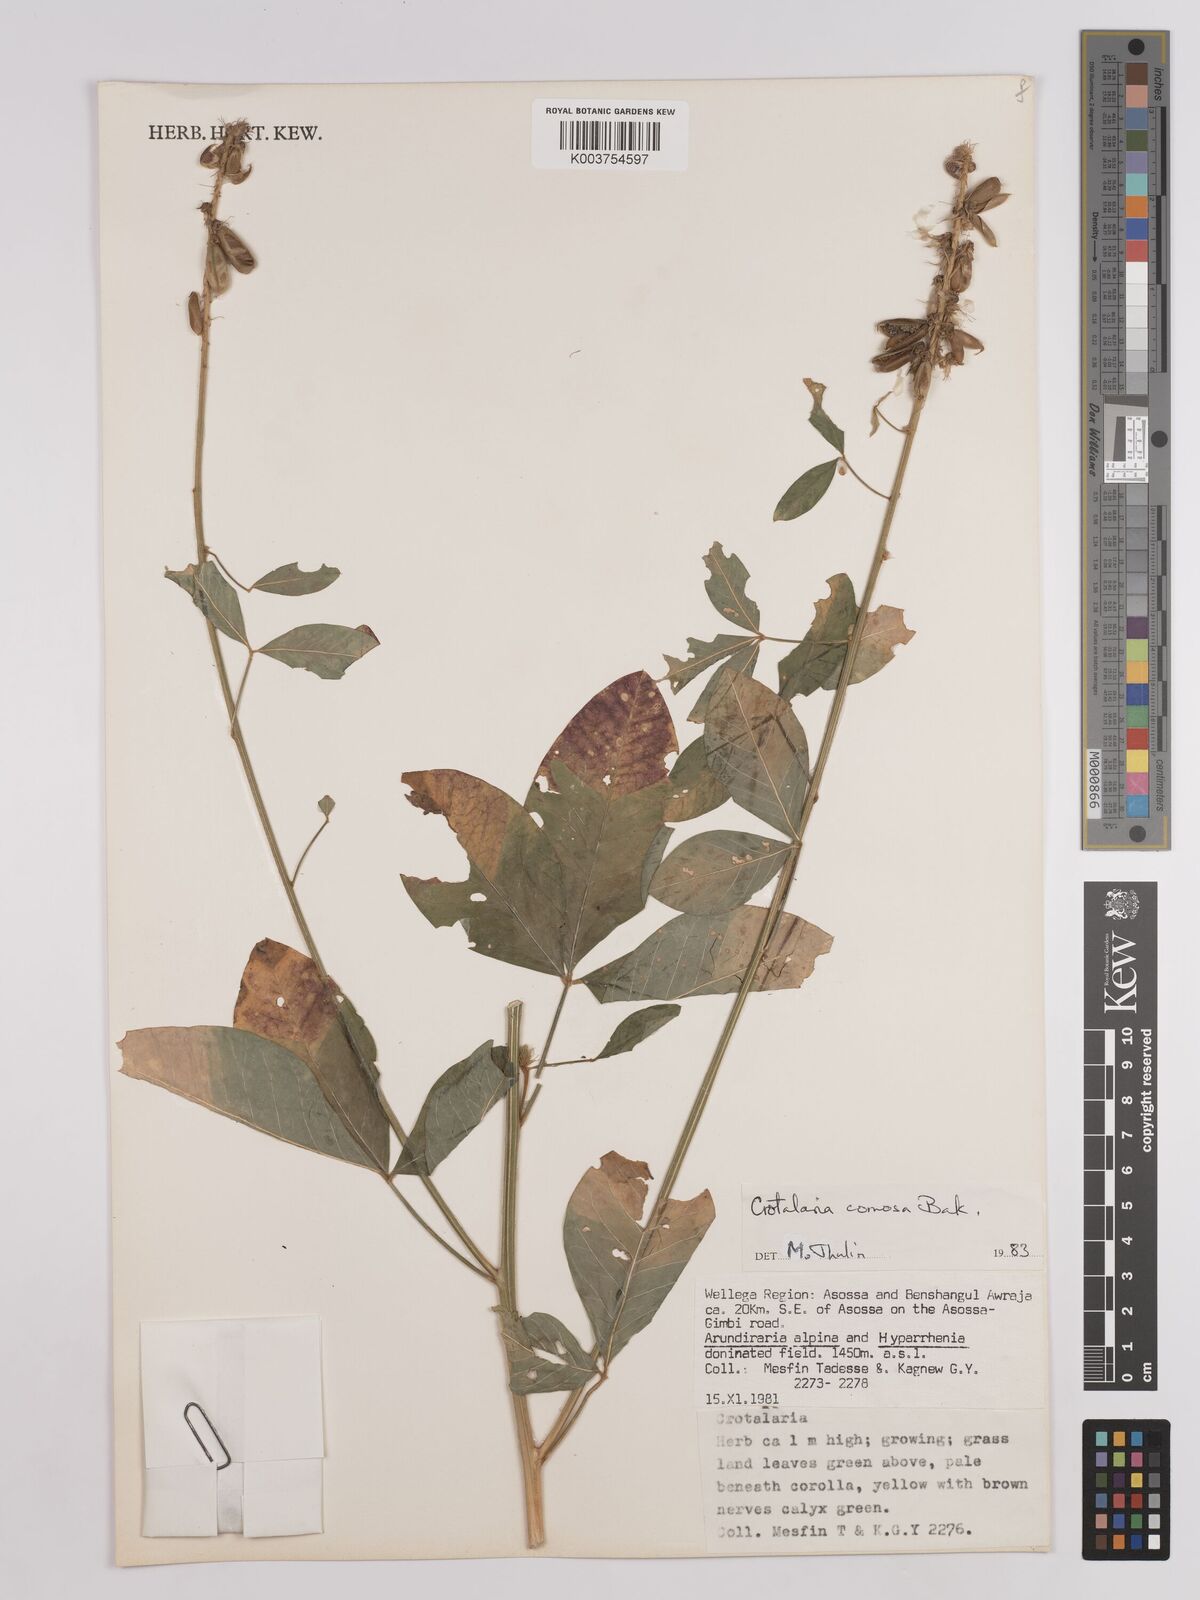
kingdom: Plantae
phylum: Tracheophyta
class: Magnoliopsida
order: Fabales
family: Fabaceae
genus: Crotalaria
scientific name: Crotalaria comosa
